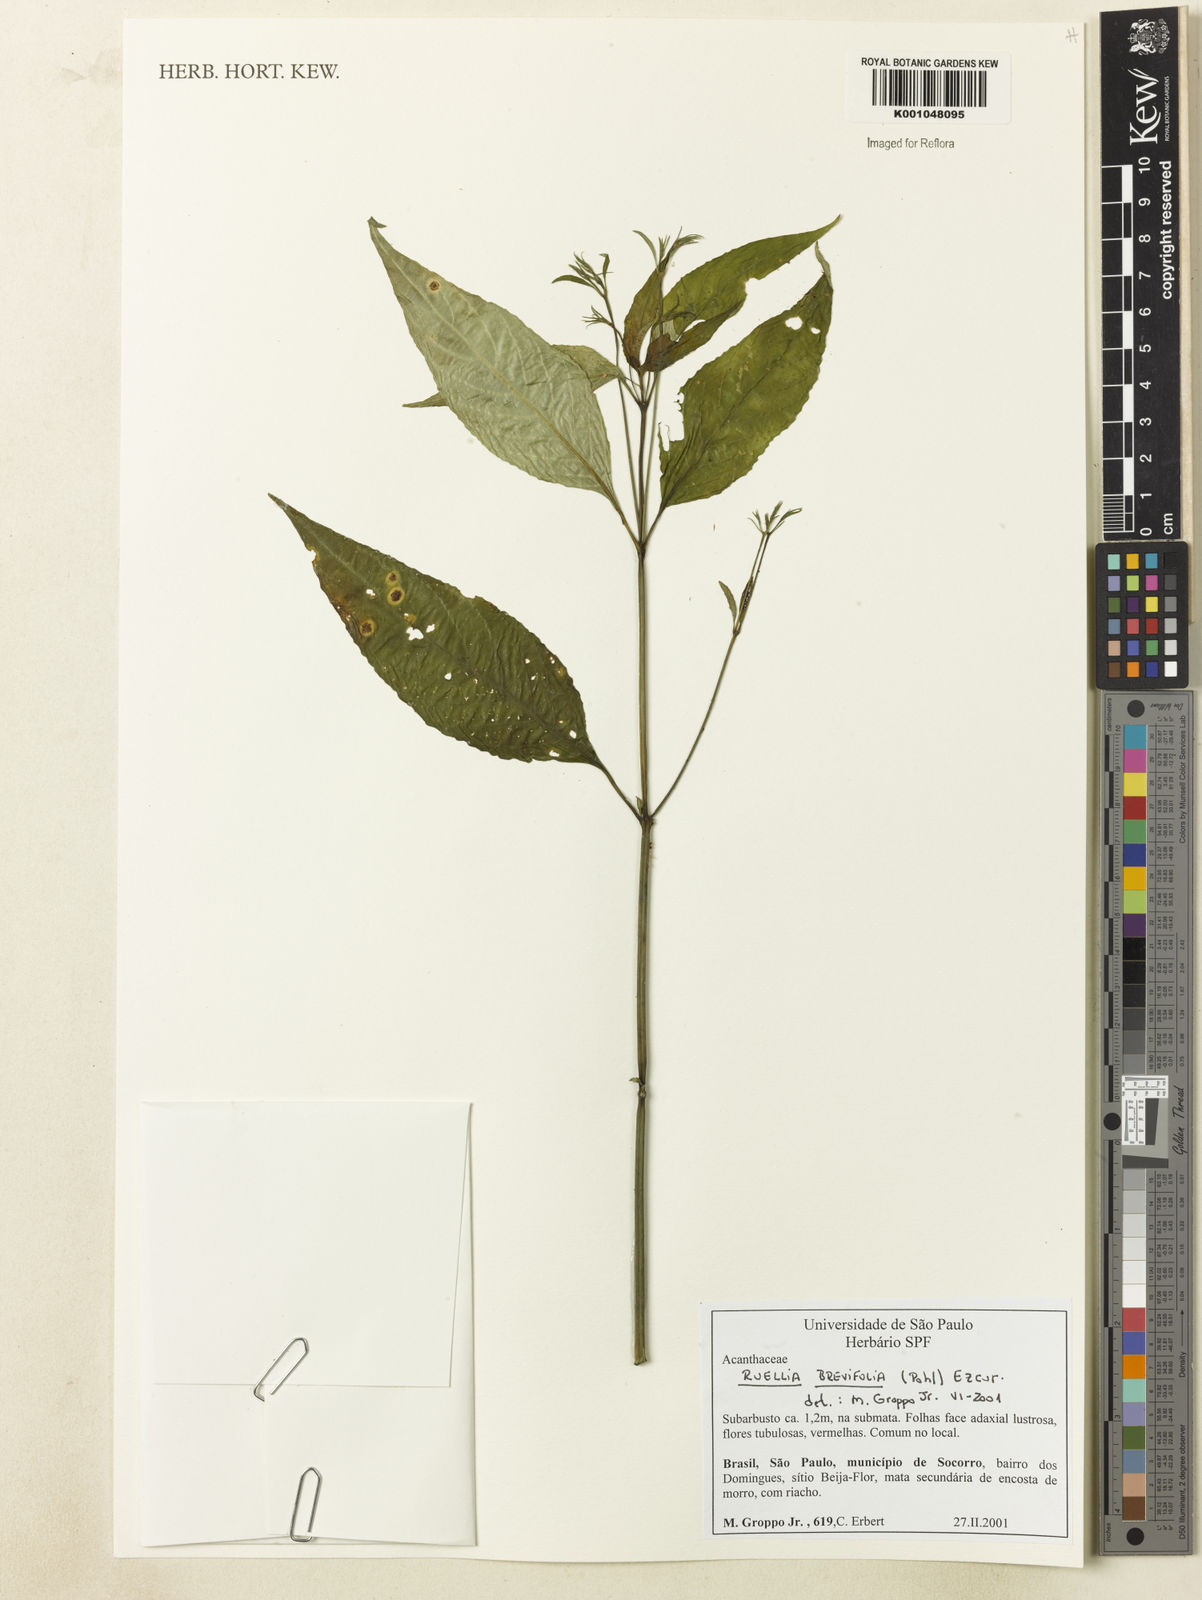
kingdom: Plantae
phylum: Tracheophyta
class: Magnoliopsida
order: Lamiales
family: Acanthaceae
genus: Ruellia
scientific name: Ruellia brevifolia
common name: Tropical wild petunia
